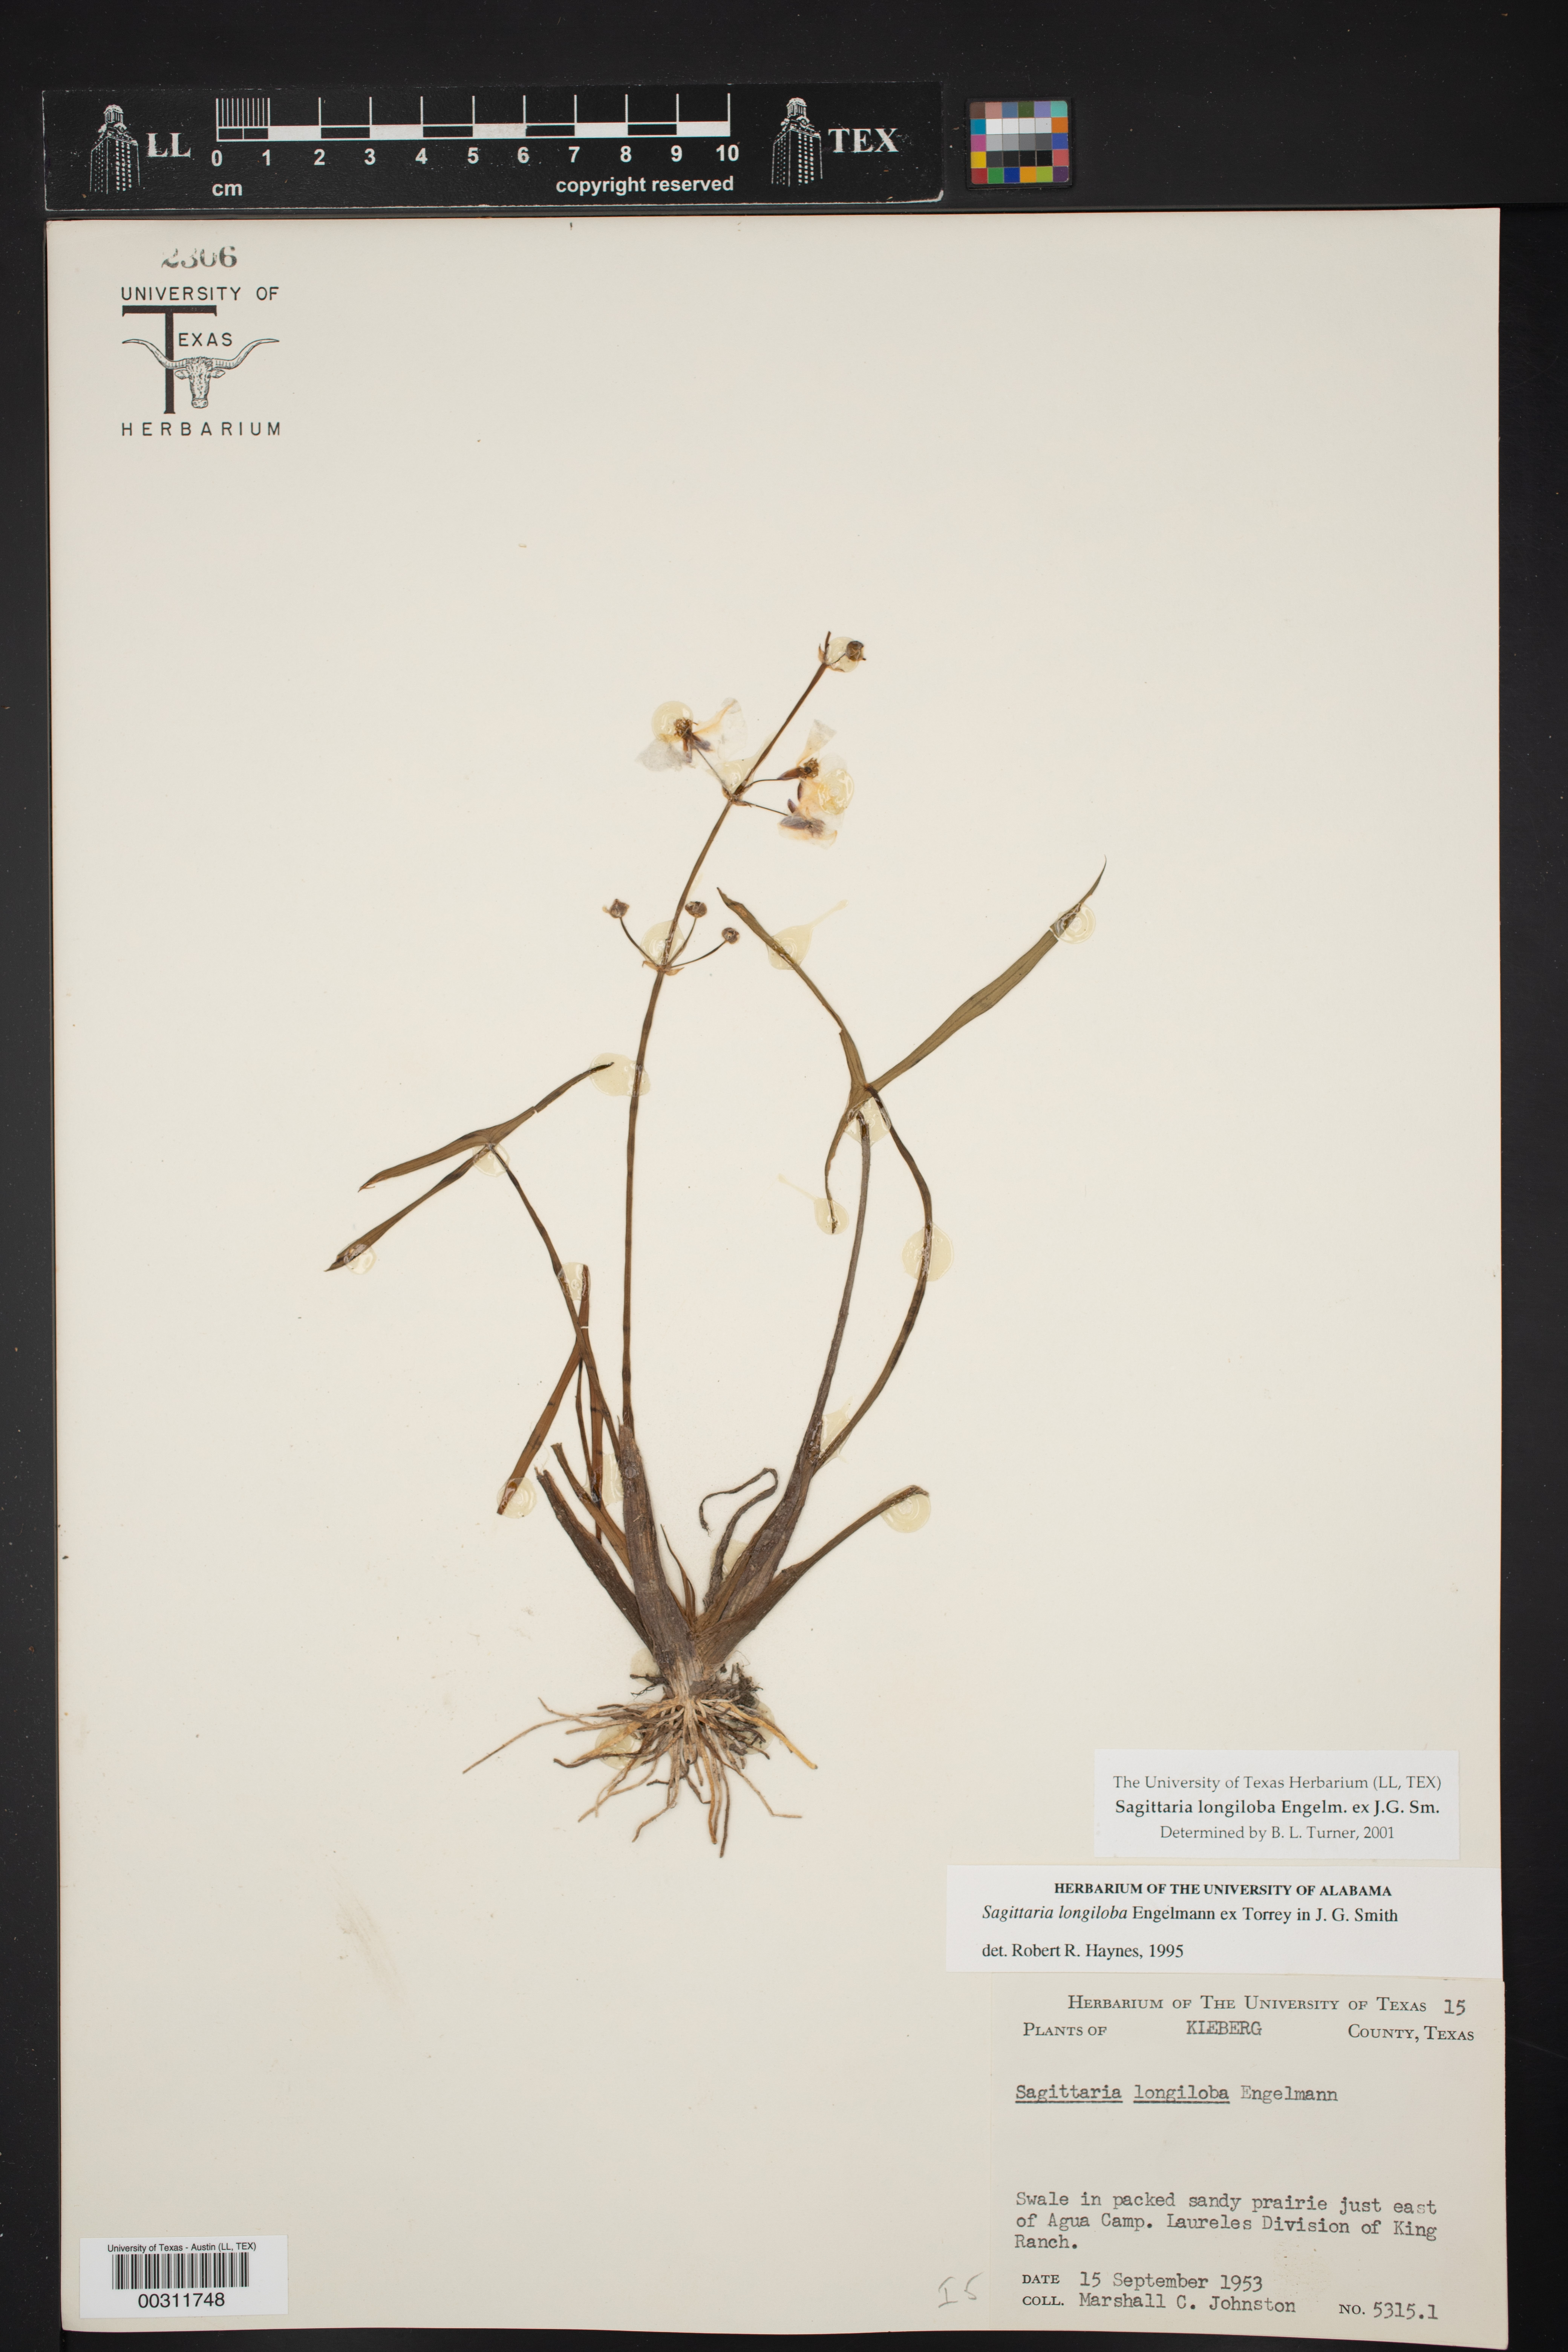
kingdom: Plantae
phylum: Tracheophyta
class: Liliopsida
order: Alismatales
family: Alismataceae
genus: Sagittaria
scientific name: Sagittaria longiloba
